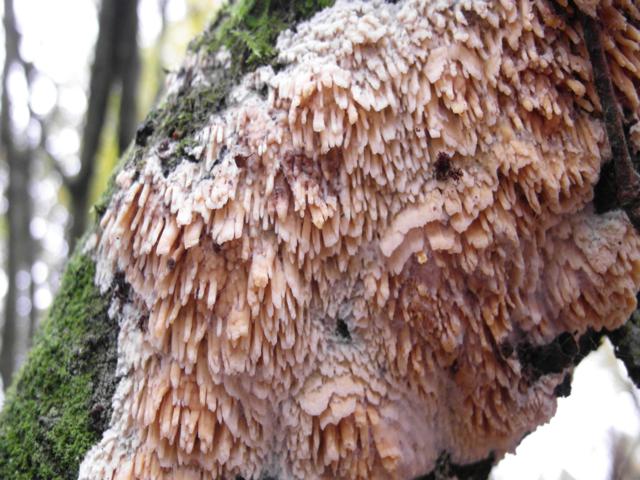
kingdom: Fungi
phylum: Basidiomycota
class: Agaricomycetes
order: Hymenochaetales
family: Schizoporaceae
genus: Xylodon
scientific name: Xylodon radula
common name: grovtandet kalkskind
